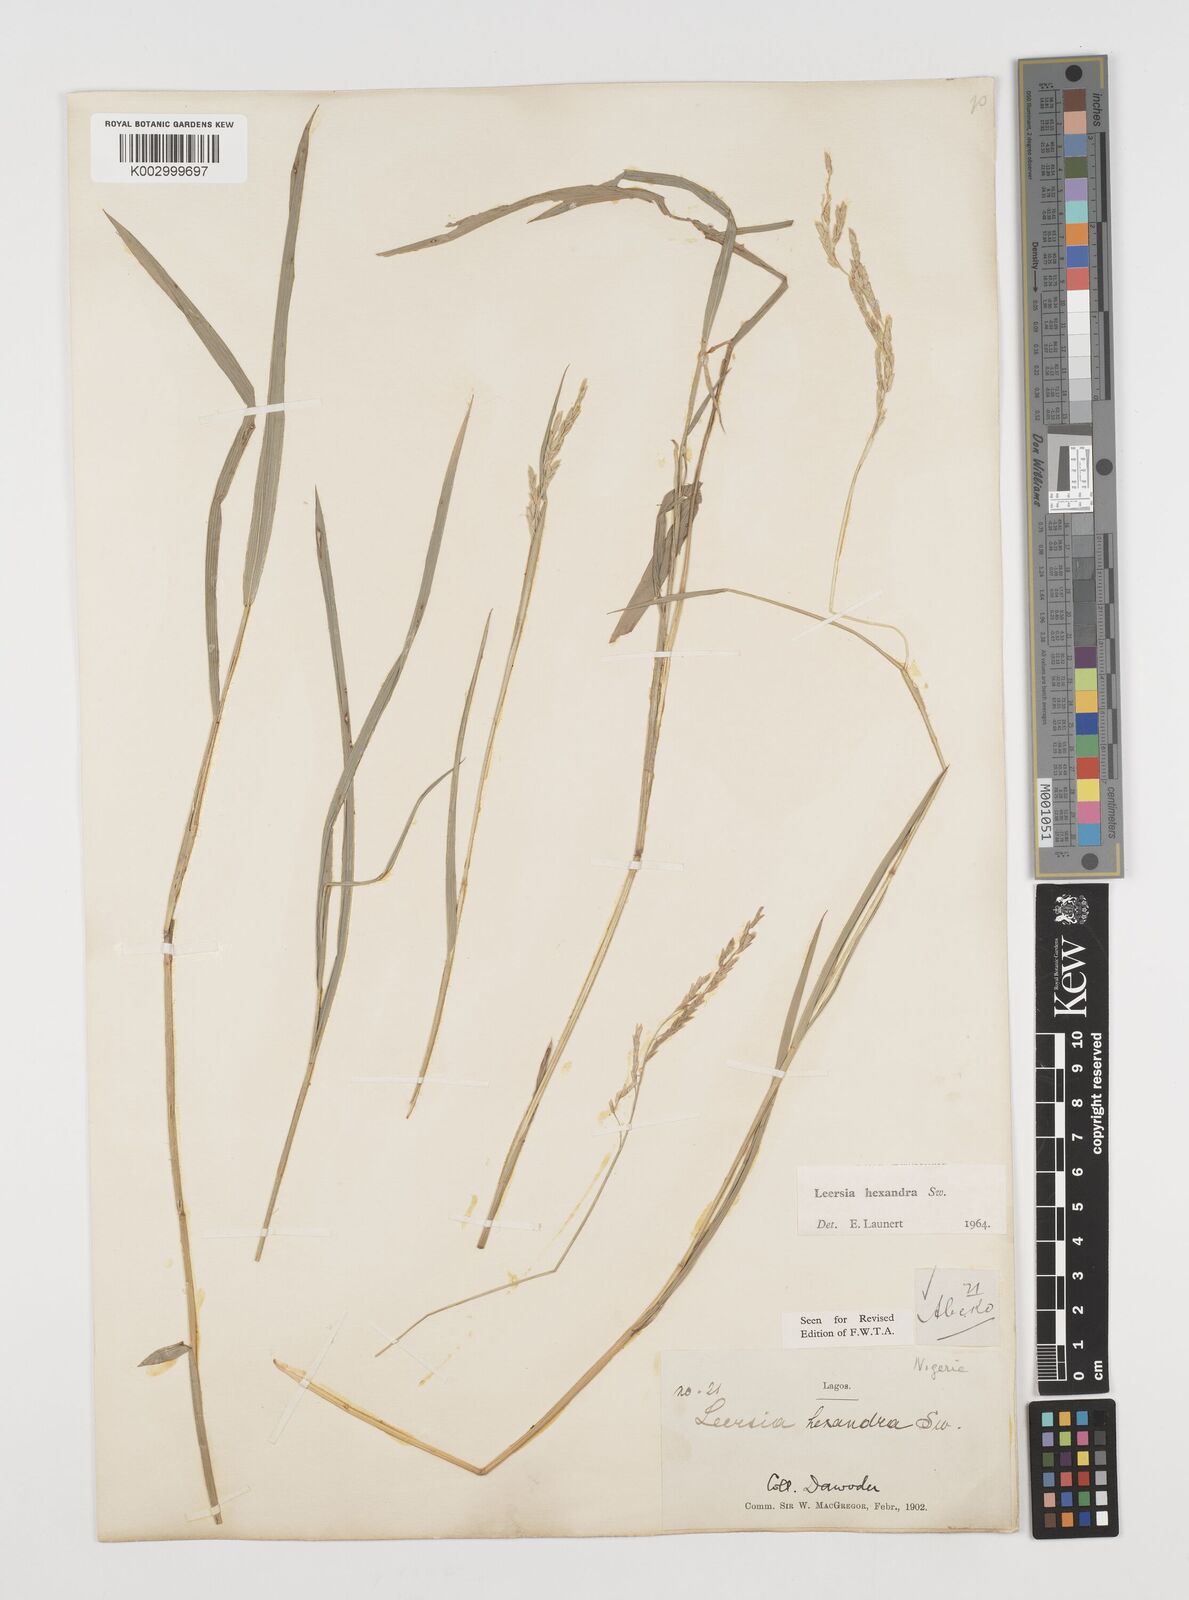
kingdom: Plantae
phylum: Tracheophyta
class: Liliopsida
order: Poales
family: Poaceae
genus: Leersia
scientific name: Leersia hexandra
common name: Southern cut grass
